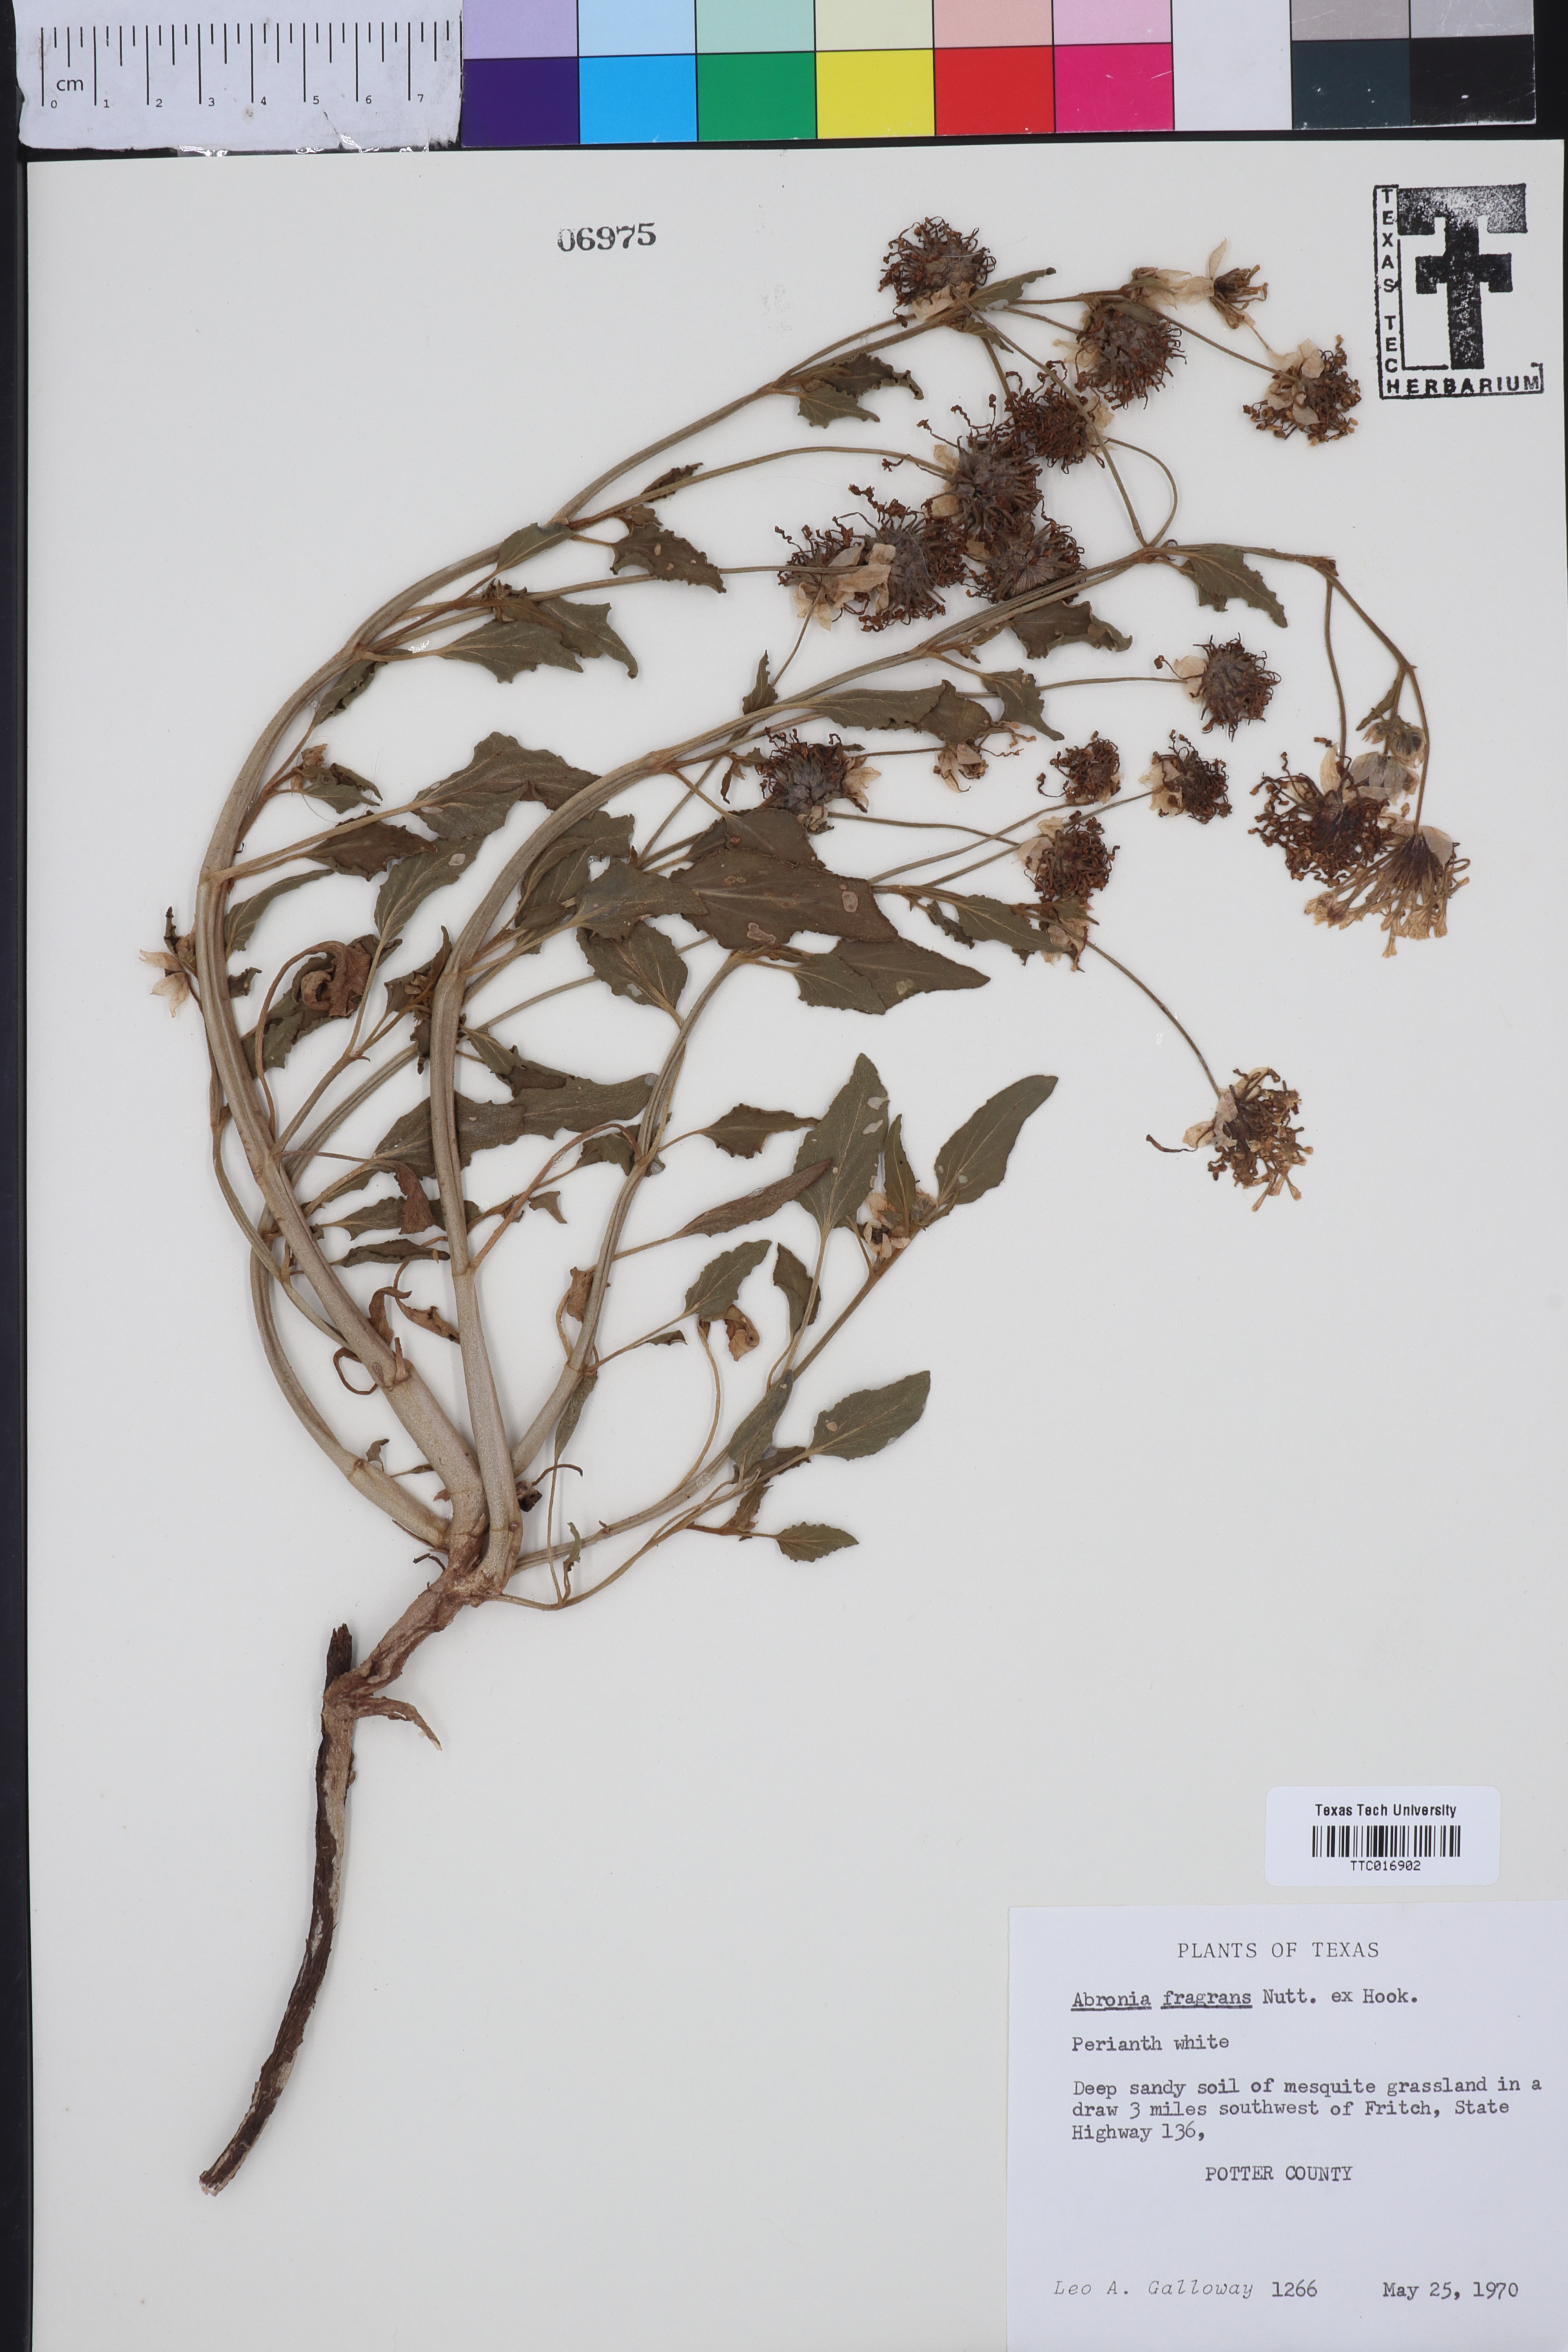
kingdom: Plantae
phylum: Tracheophyta
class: Magnoliopsida
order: Caryophyllales
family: Nyctaginaceae
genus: Abronia
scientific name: Abronia fragrans
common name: Fragrant sand-verbena
